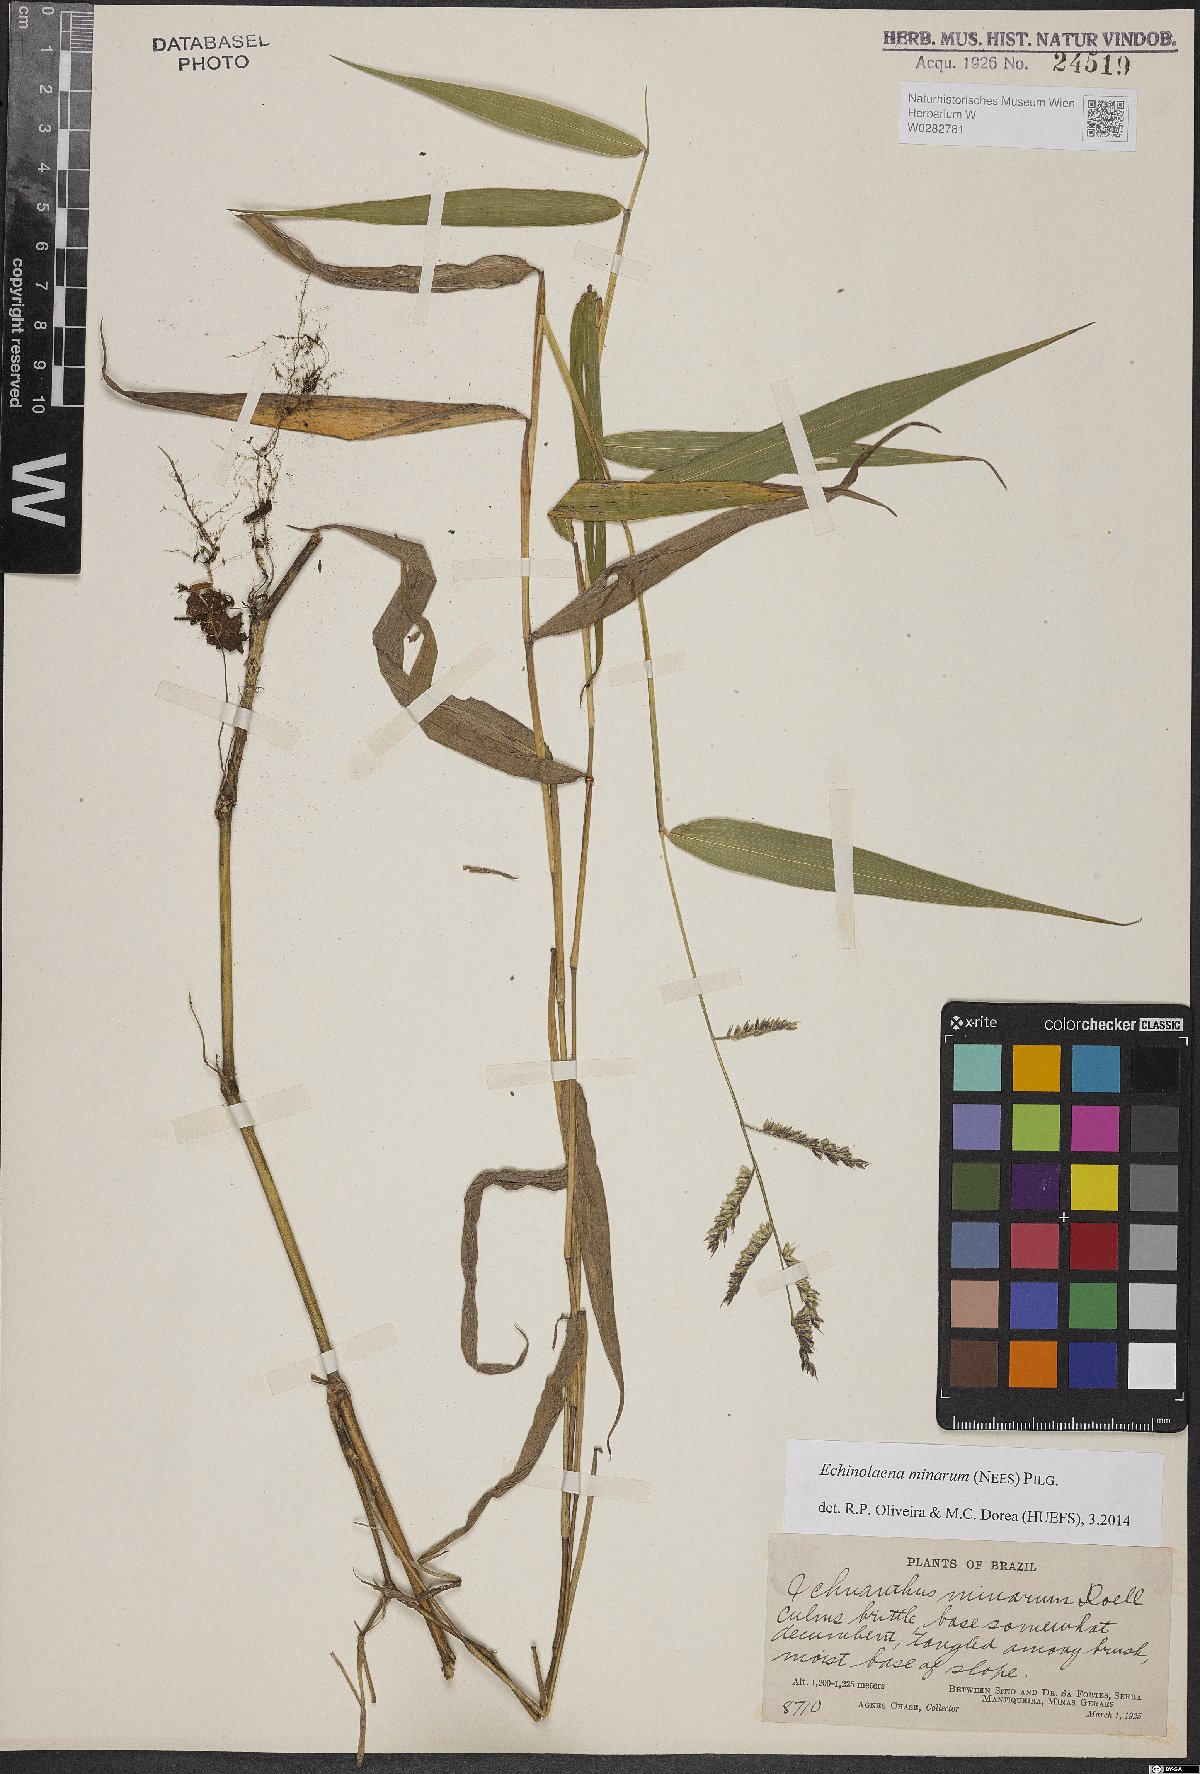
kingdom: Plantae
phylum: Tracheophyta
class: Liliopsida
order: Poales
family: Poaceae
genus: Oedochloa
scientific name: Oedochloa minarum
